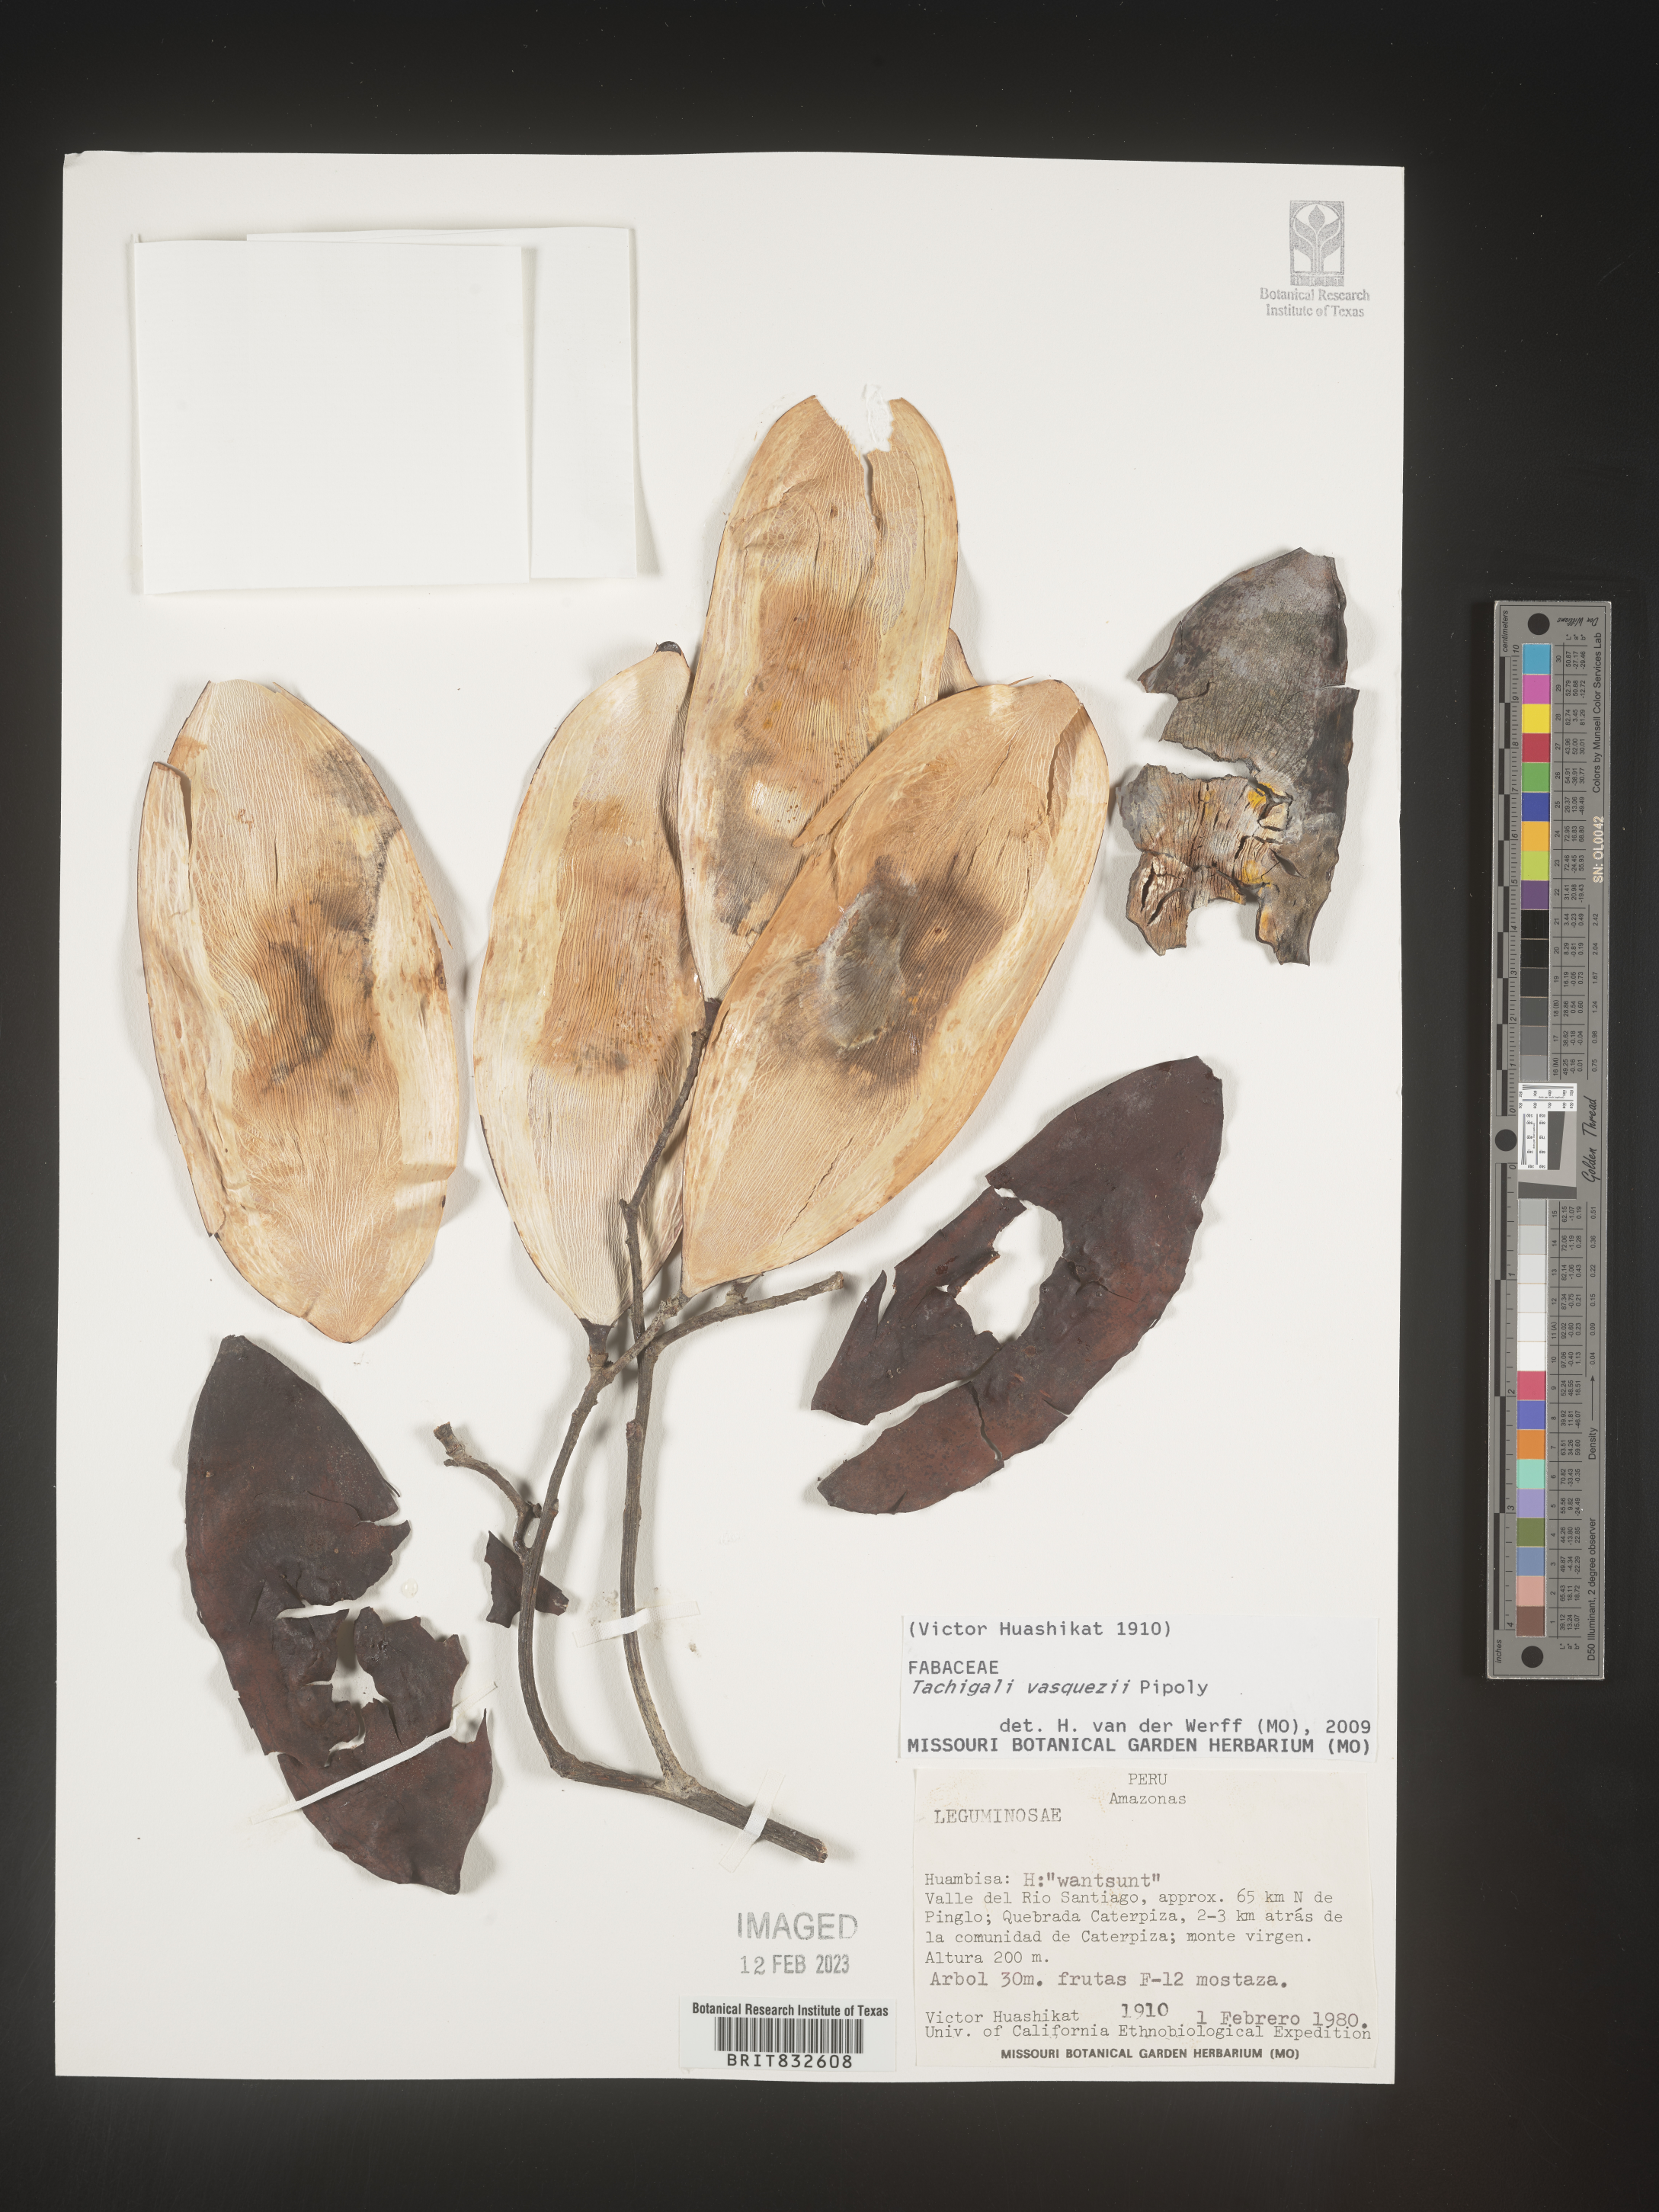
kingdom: Plantae
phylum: Tracheophyta
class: Magnoliopsida
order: Fabales
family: Fabaceae
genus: Tachigali
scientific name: Tachigali
